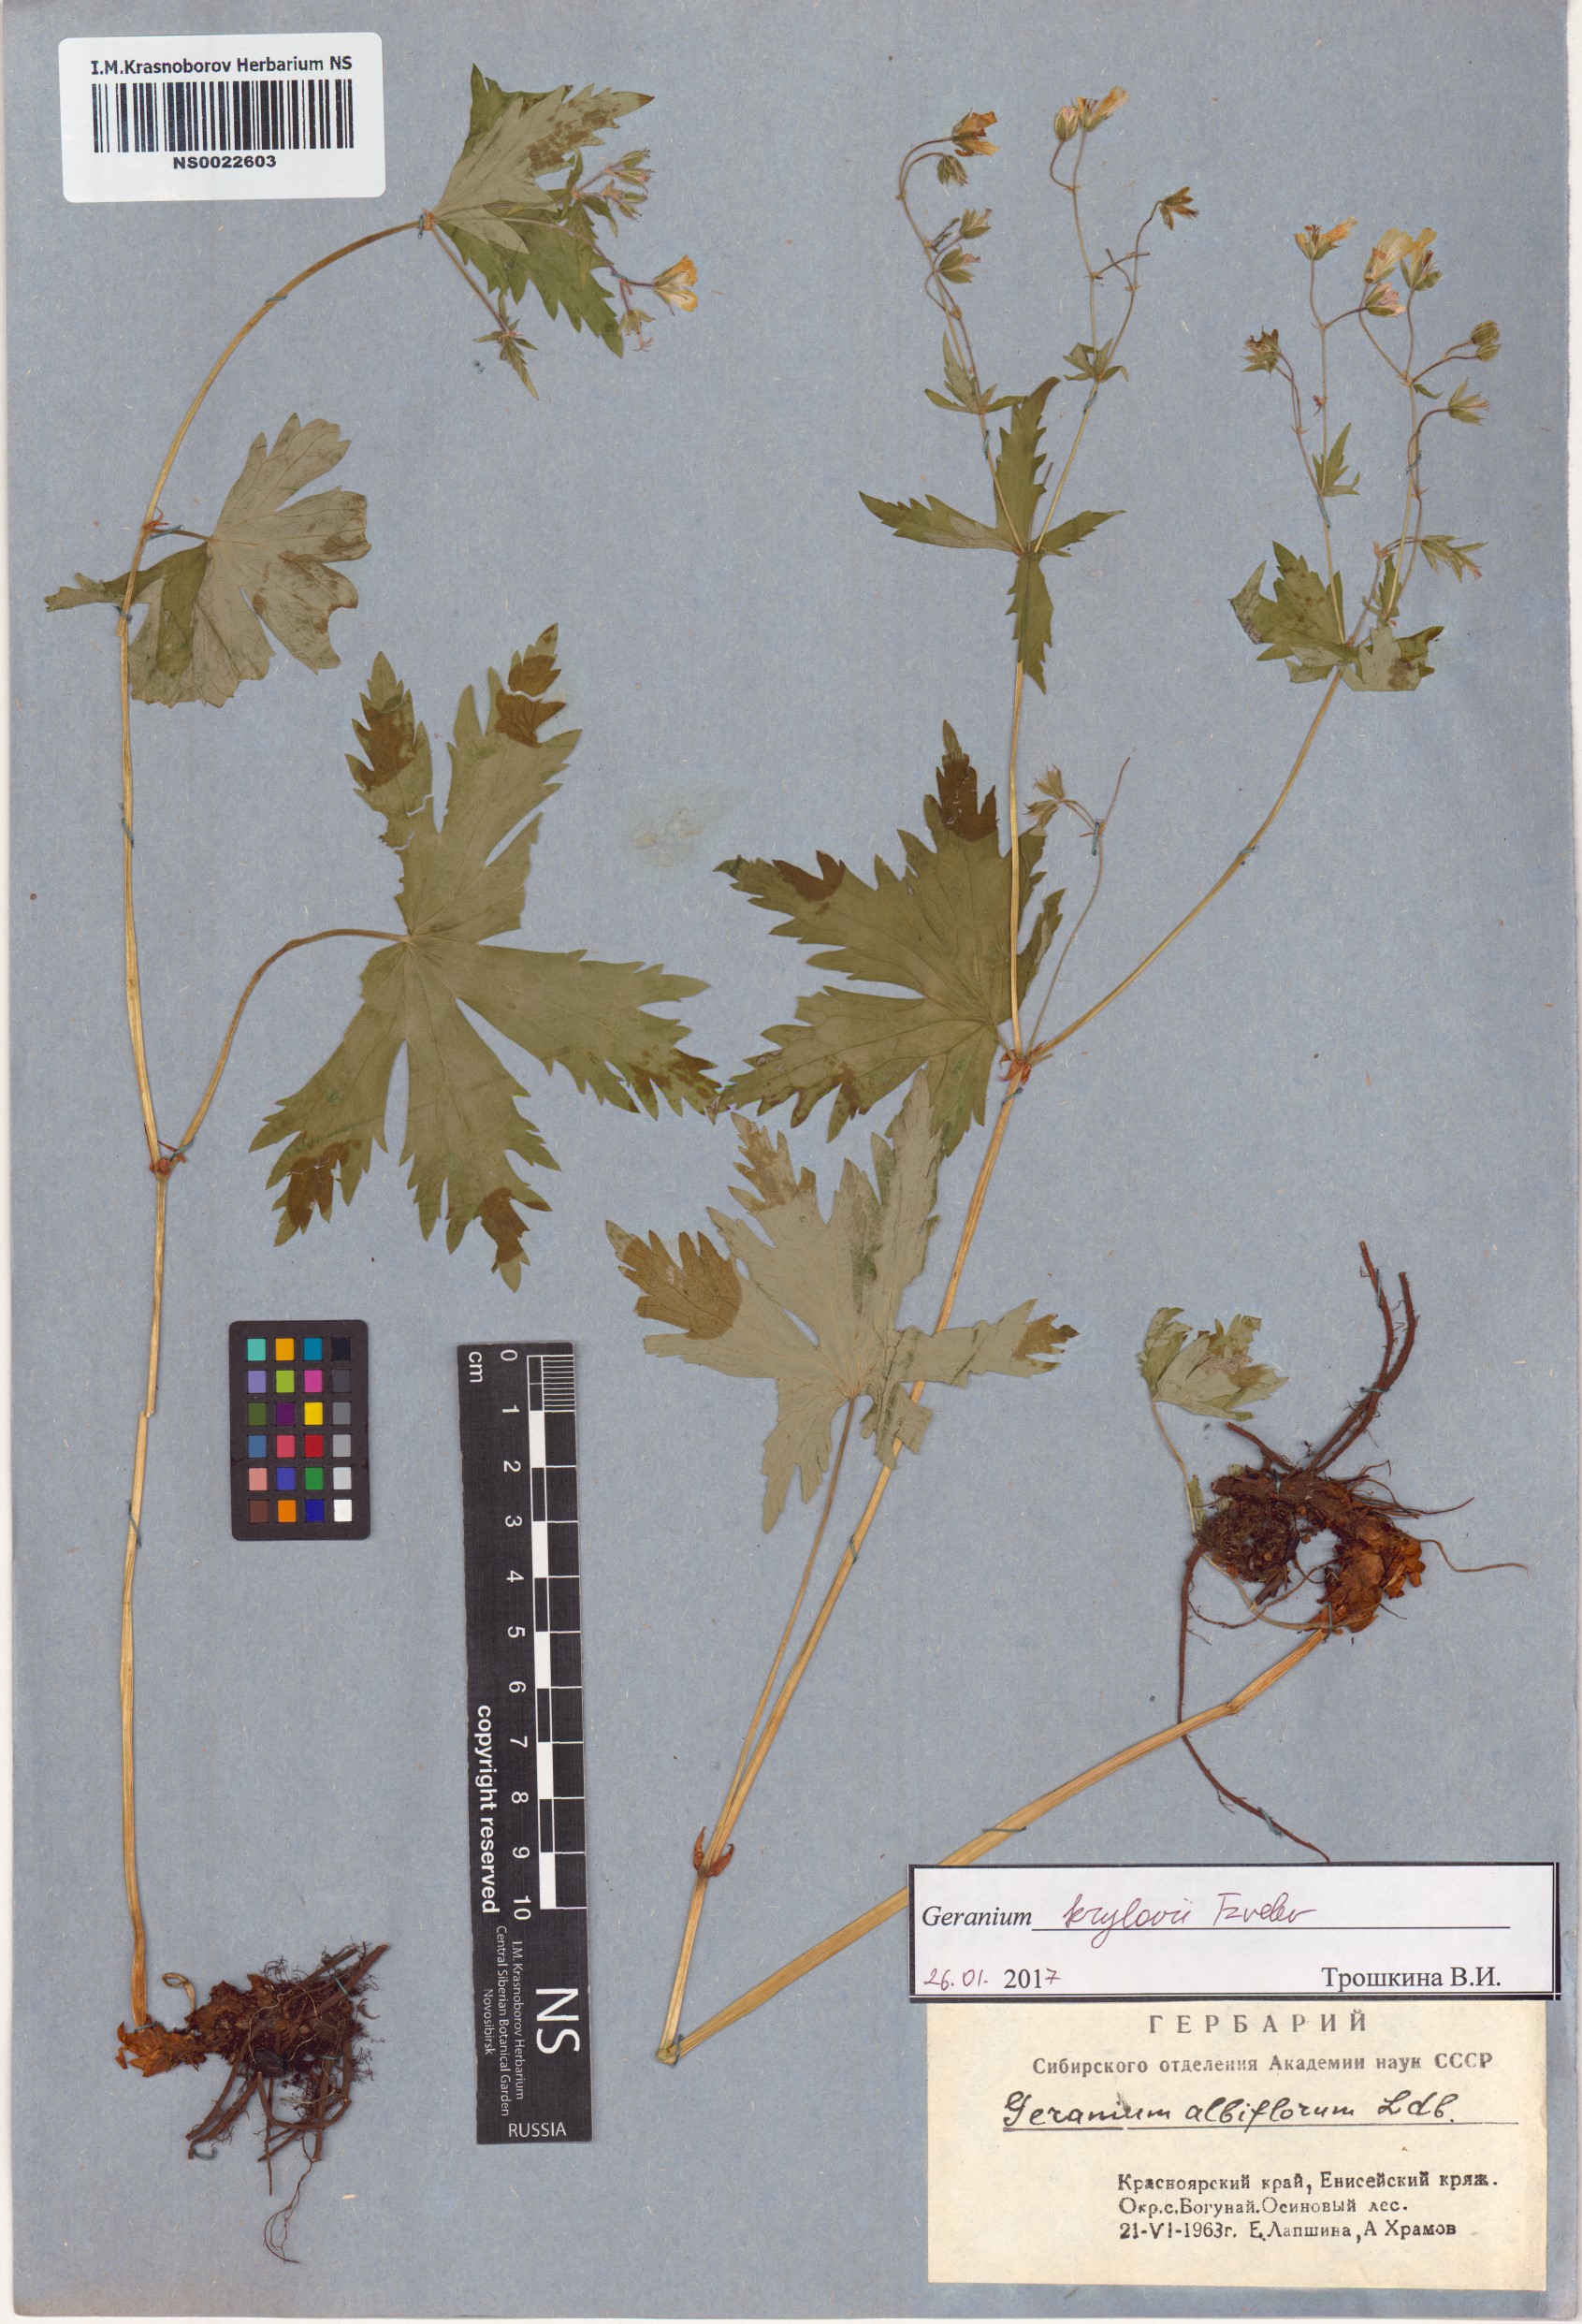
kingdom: Plantae
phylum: Tracheophyta
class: Magnoliopsida
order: Geraniales
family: Geraniaceae
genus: Geranium
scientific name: Geranium sylvaticum
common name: Wood crane's-bill
